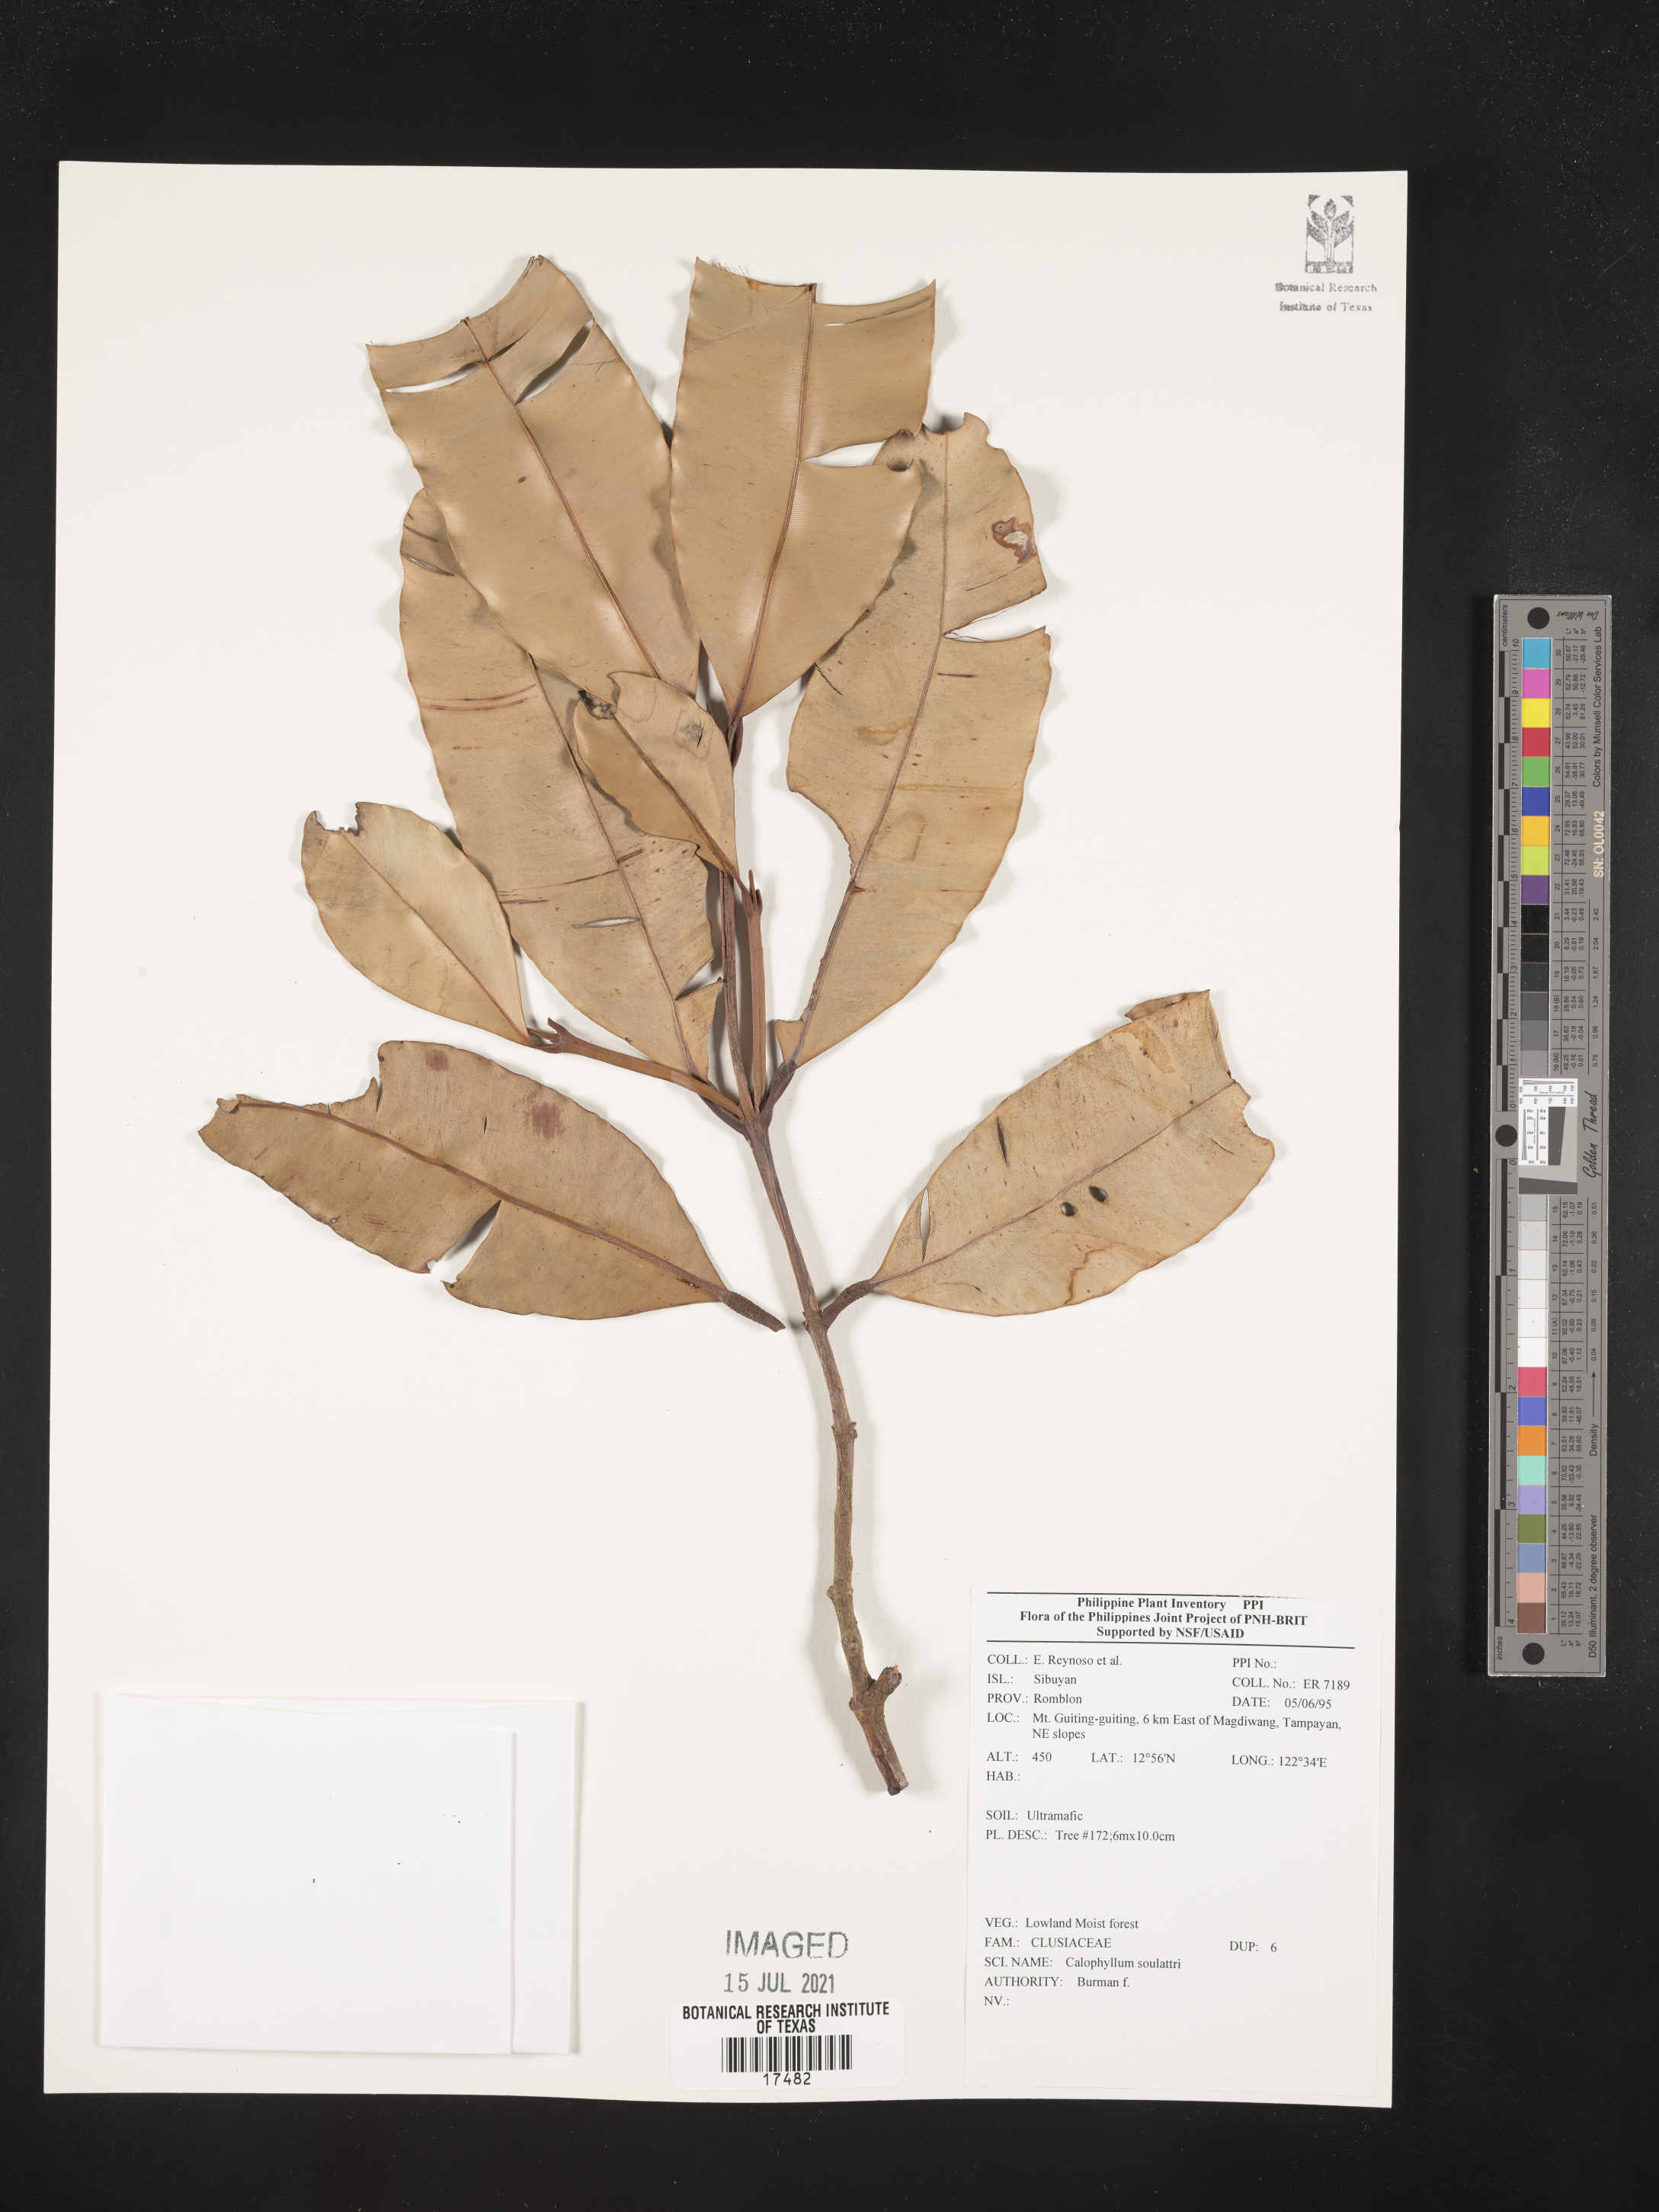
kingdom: Plantae
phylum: Tracheophyta
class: Magnoliopsida
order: Malpighiales
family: Calophyllaceae
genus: Calophyllum
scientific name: Calophyllum soulattri
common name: Bitangoor boonot
